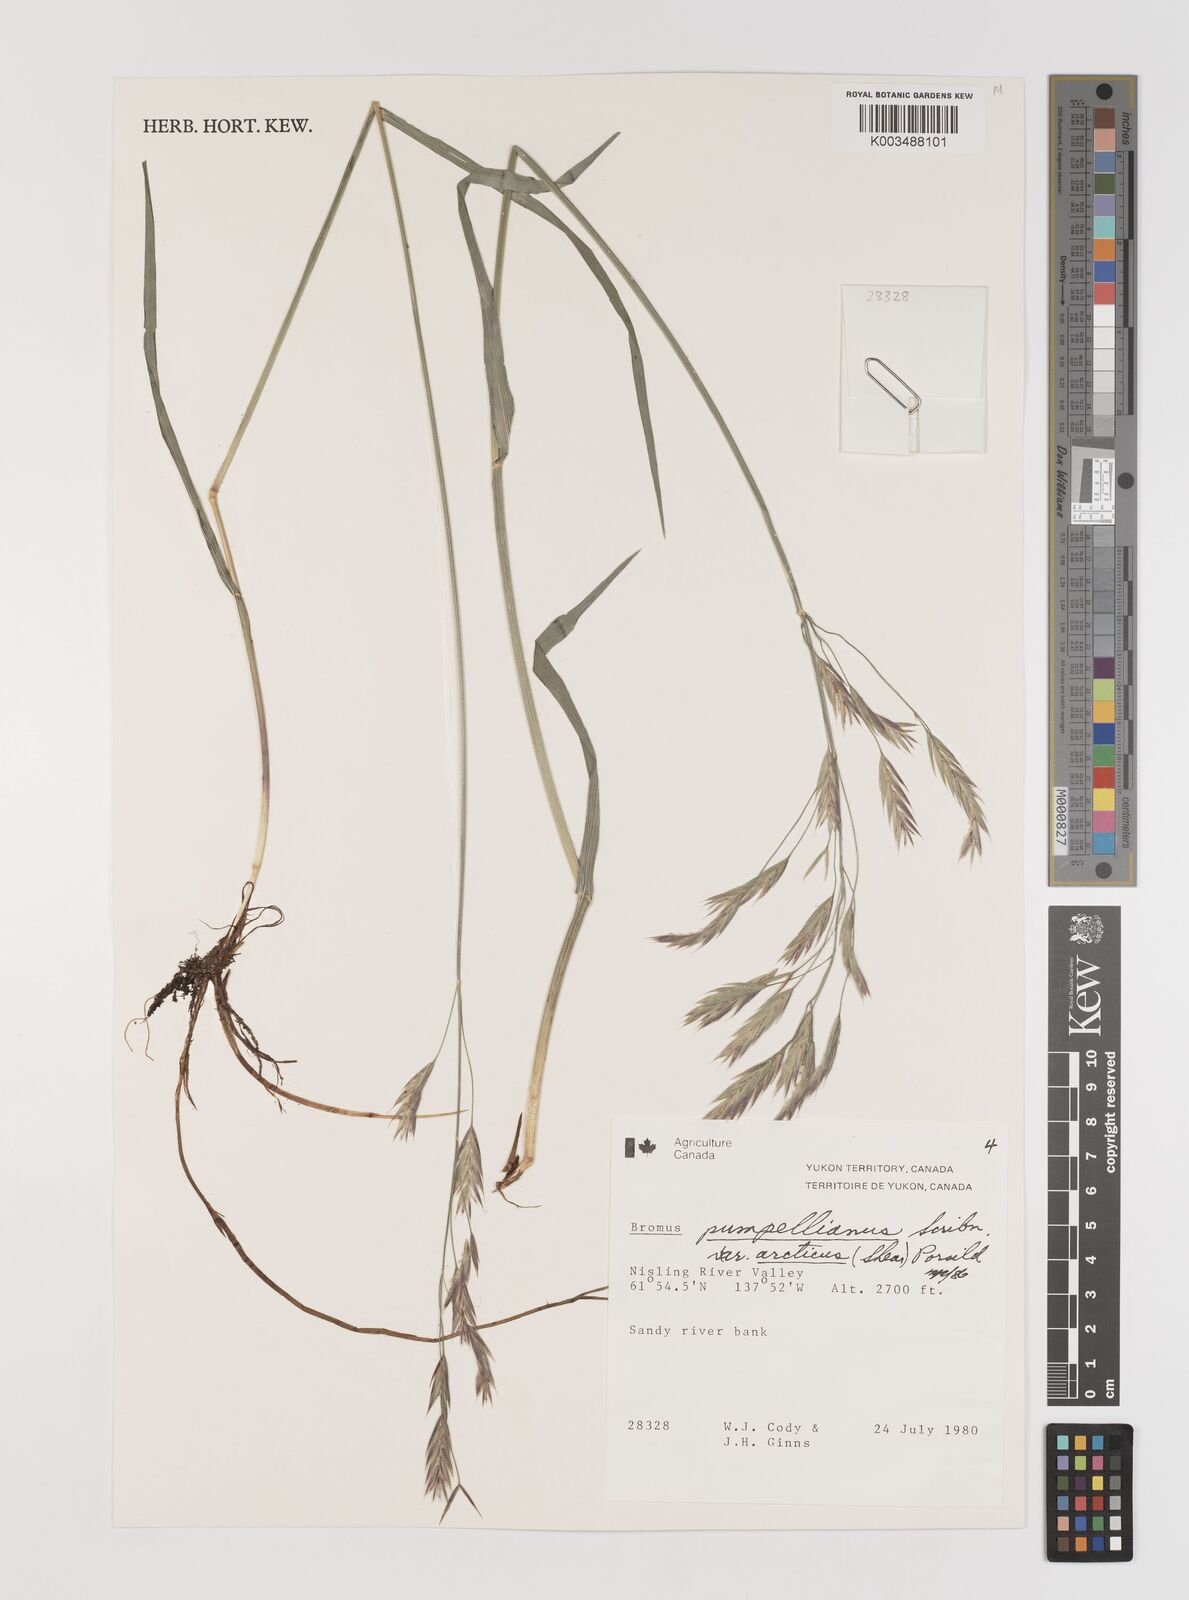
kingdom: Plantae
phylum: Tracheophyta
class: Liliopsida
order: Poales
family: Poaceae
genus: Bromus
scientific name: Bromus pumpellianus
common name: Pumpelly's brome
